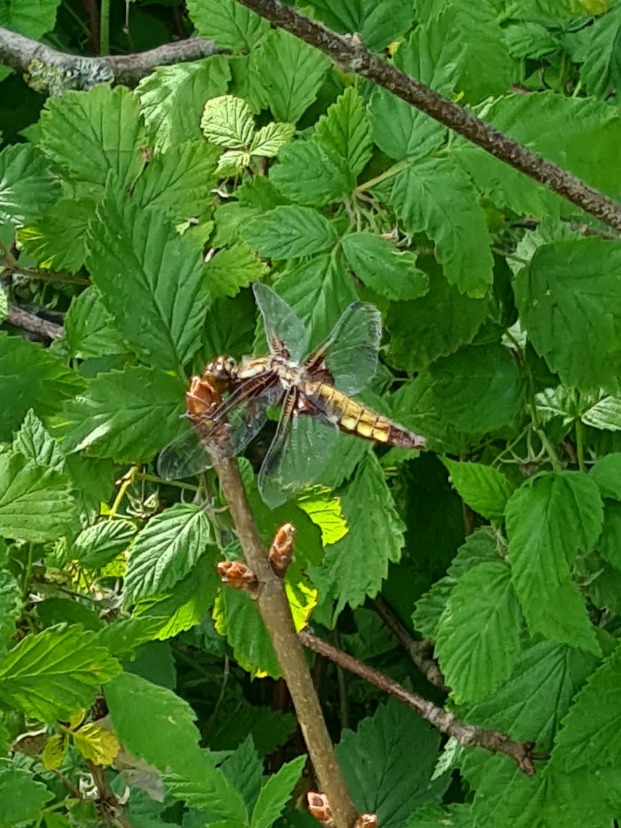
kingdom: Animalia
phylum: Arthropoda
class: Insecta
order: Odonata
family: Libellulidae
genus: Libellula
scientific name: Libellula depressa
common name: Blå libel
